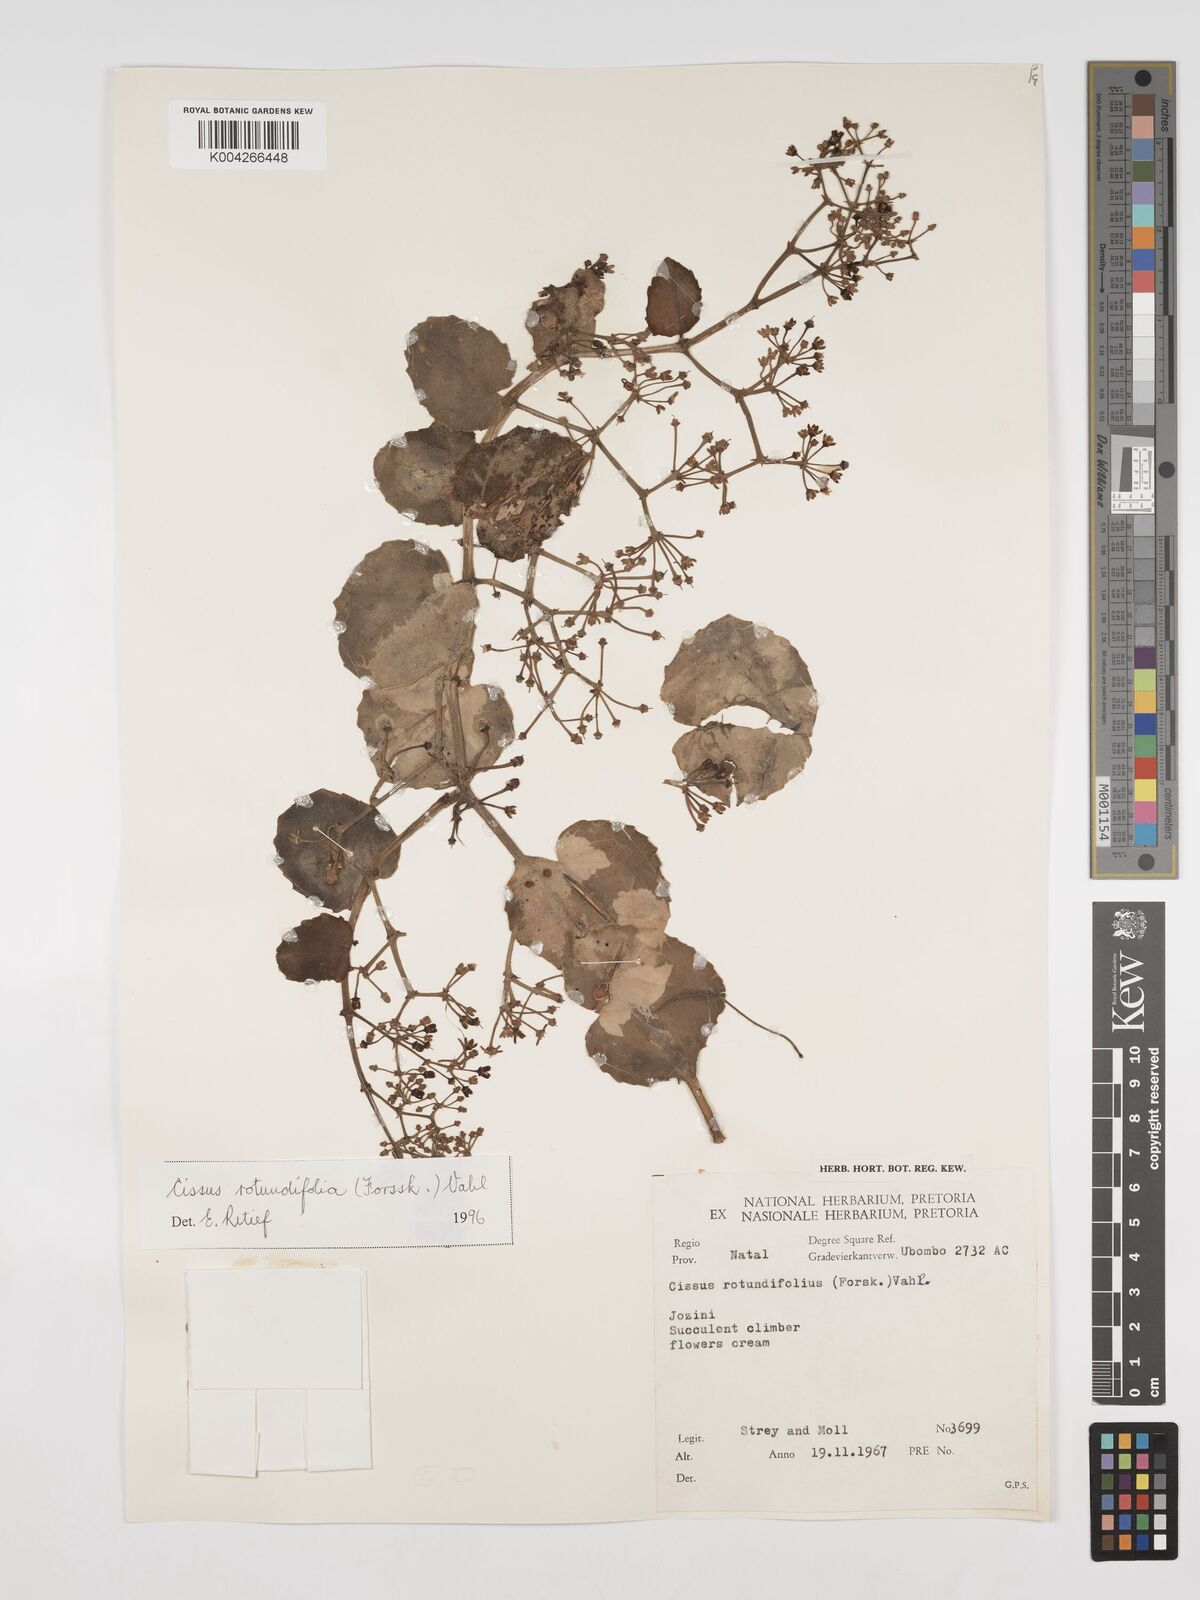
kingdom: Plantae
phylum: Tracheophyta
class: Magnoliopsida
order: Vitales
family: Vitaceae
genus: Cissus
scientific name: Cissus
